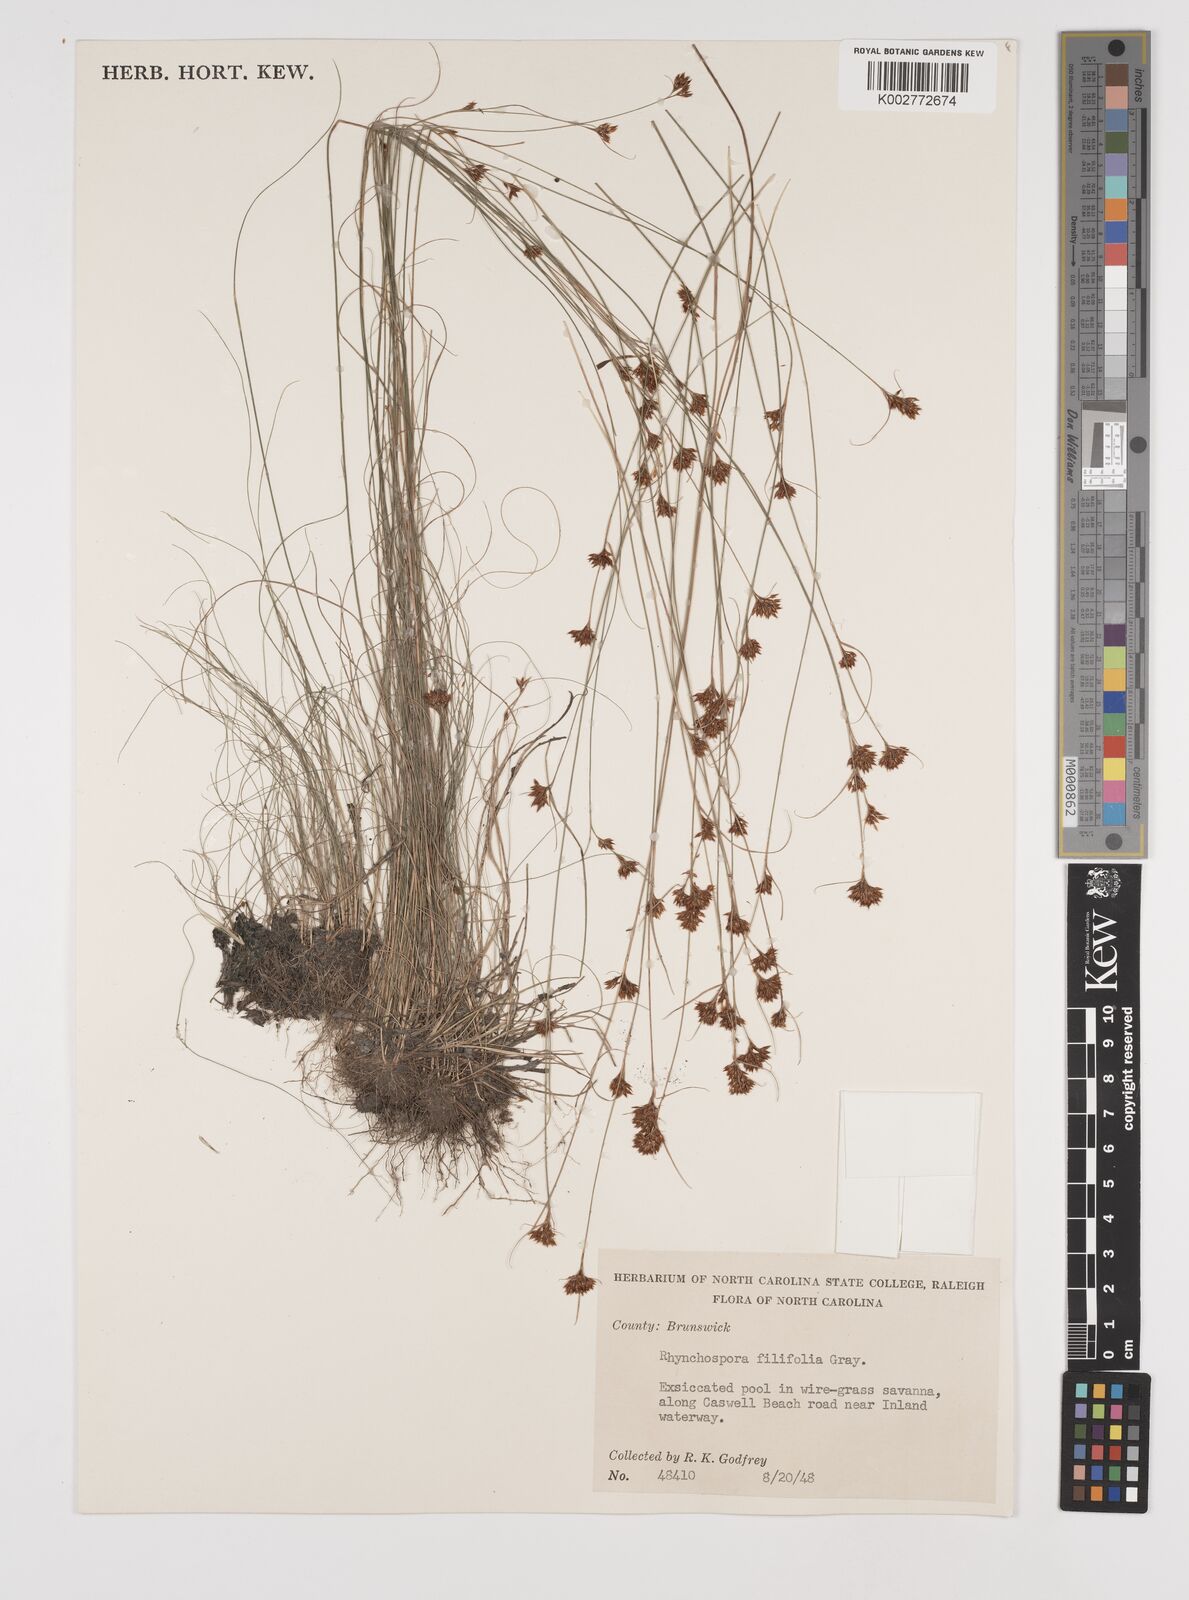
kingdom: Plantae
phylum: Tracheophyta
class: Liliopsida
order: Poales
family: Cyperaceae
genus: Rhynchospora
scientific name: Rhynchospora filifolia
